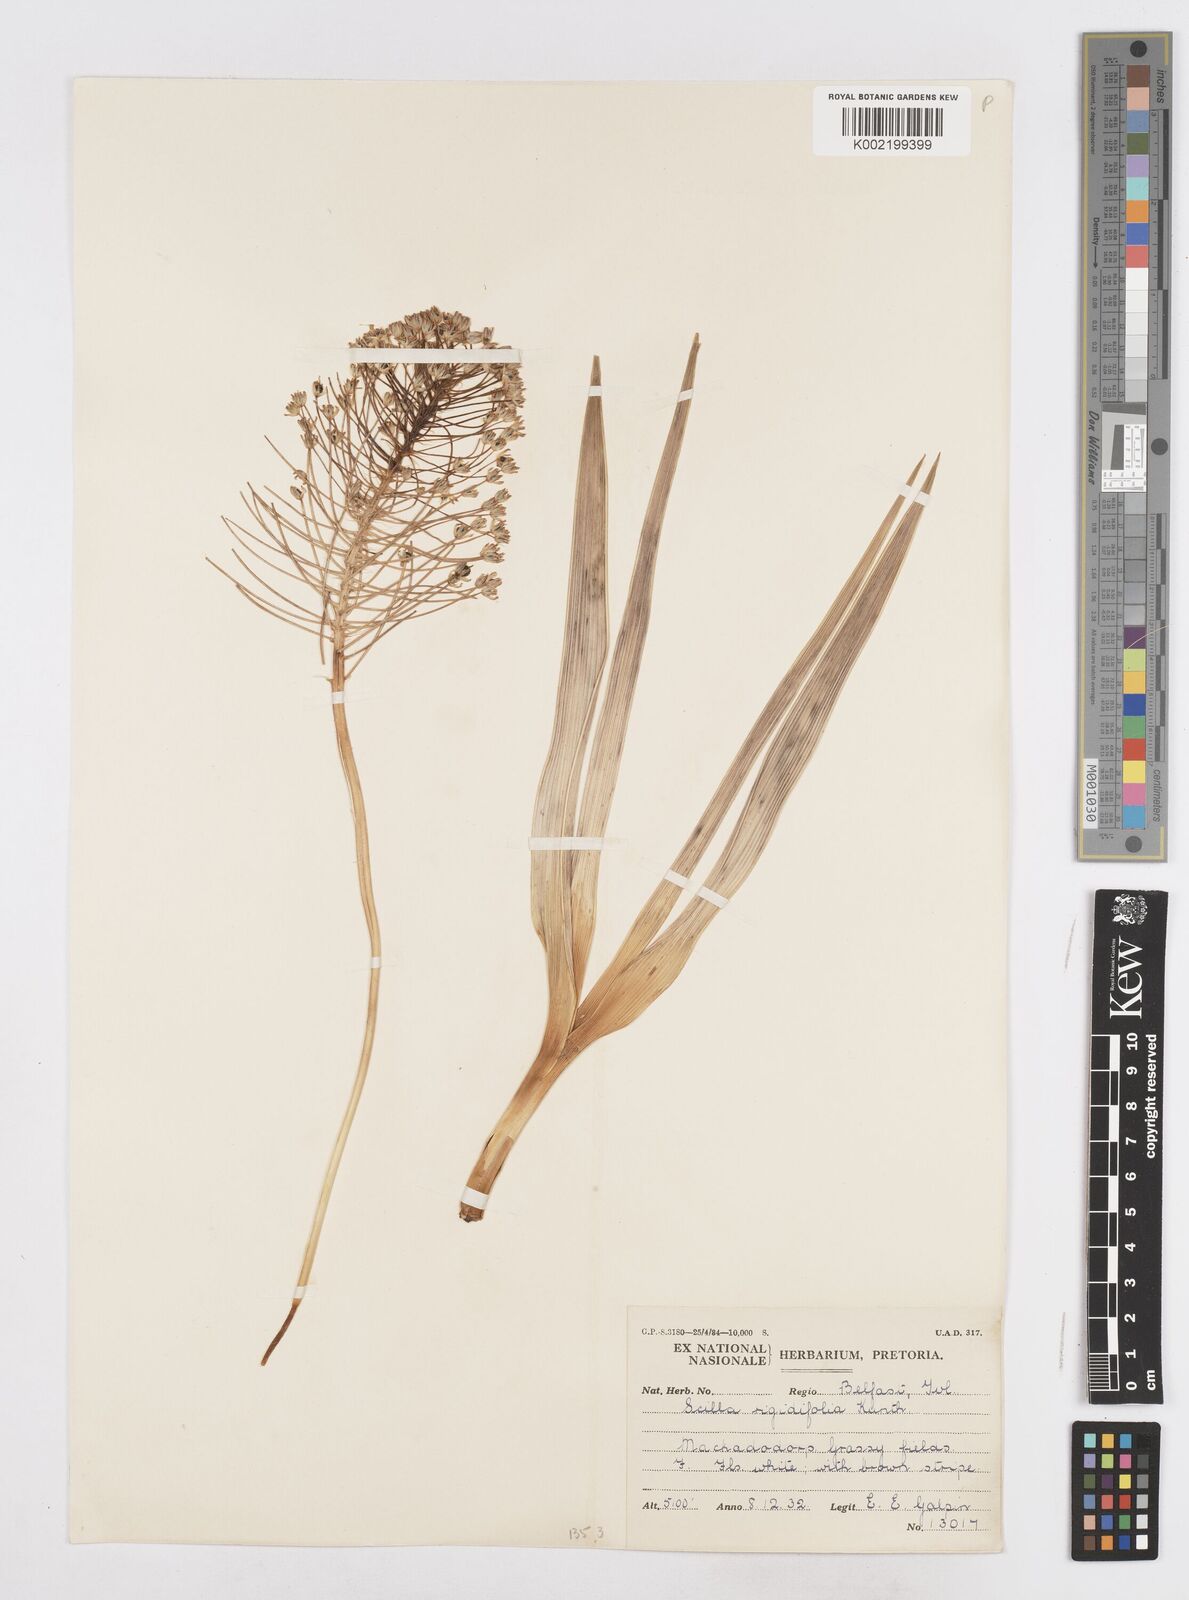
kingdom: Plantae
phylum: Tracheophyta
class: Liliopsida
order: Asparagales
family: Asparagaceae
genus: Schizocarphus
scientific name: Schizocarphus nervosus
